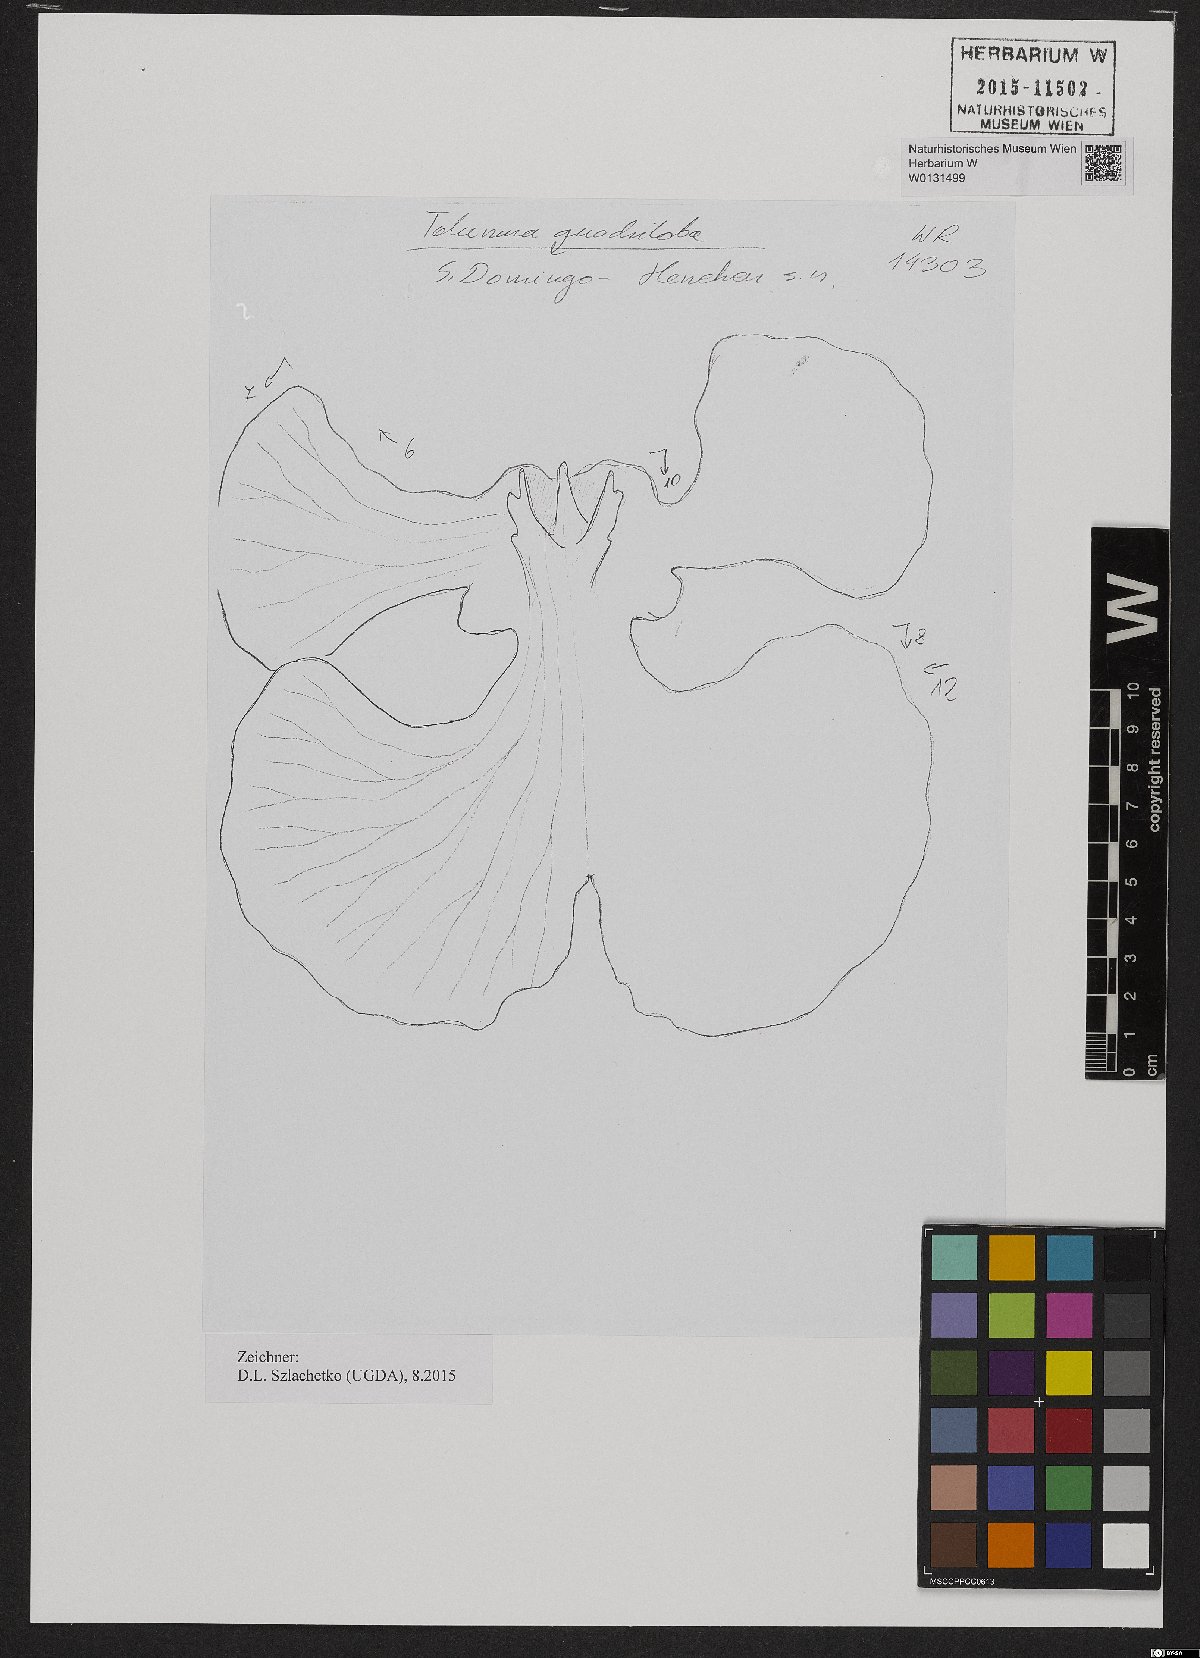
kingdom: Plantae
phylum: Tracheophyta
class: Liliopsida
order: Asparagales
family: Orchidaceae
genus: Tolumnia
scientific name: Tolumnia quadriloba
